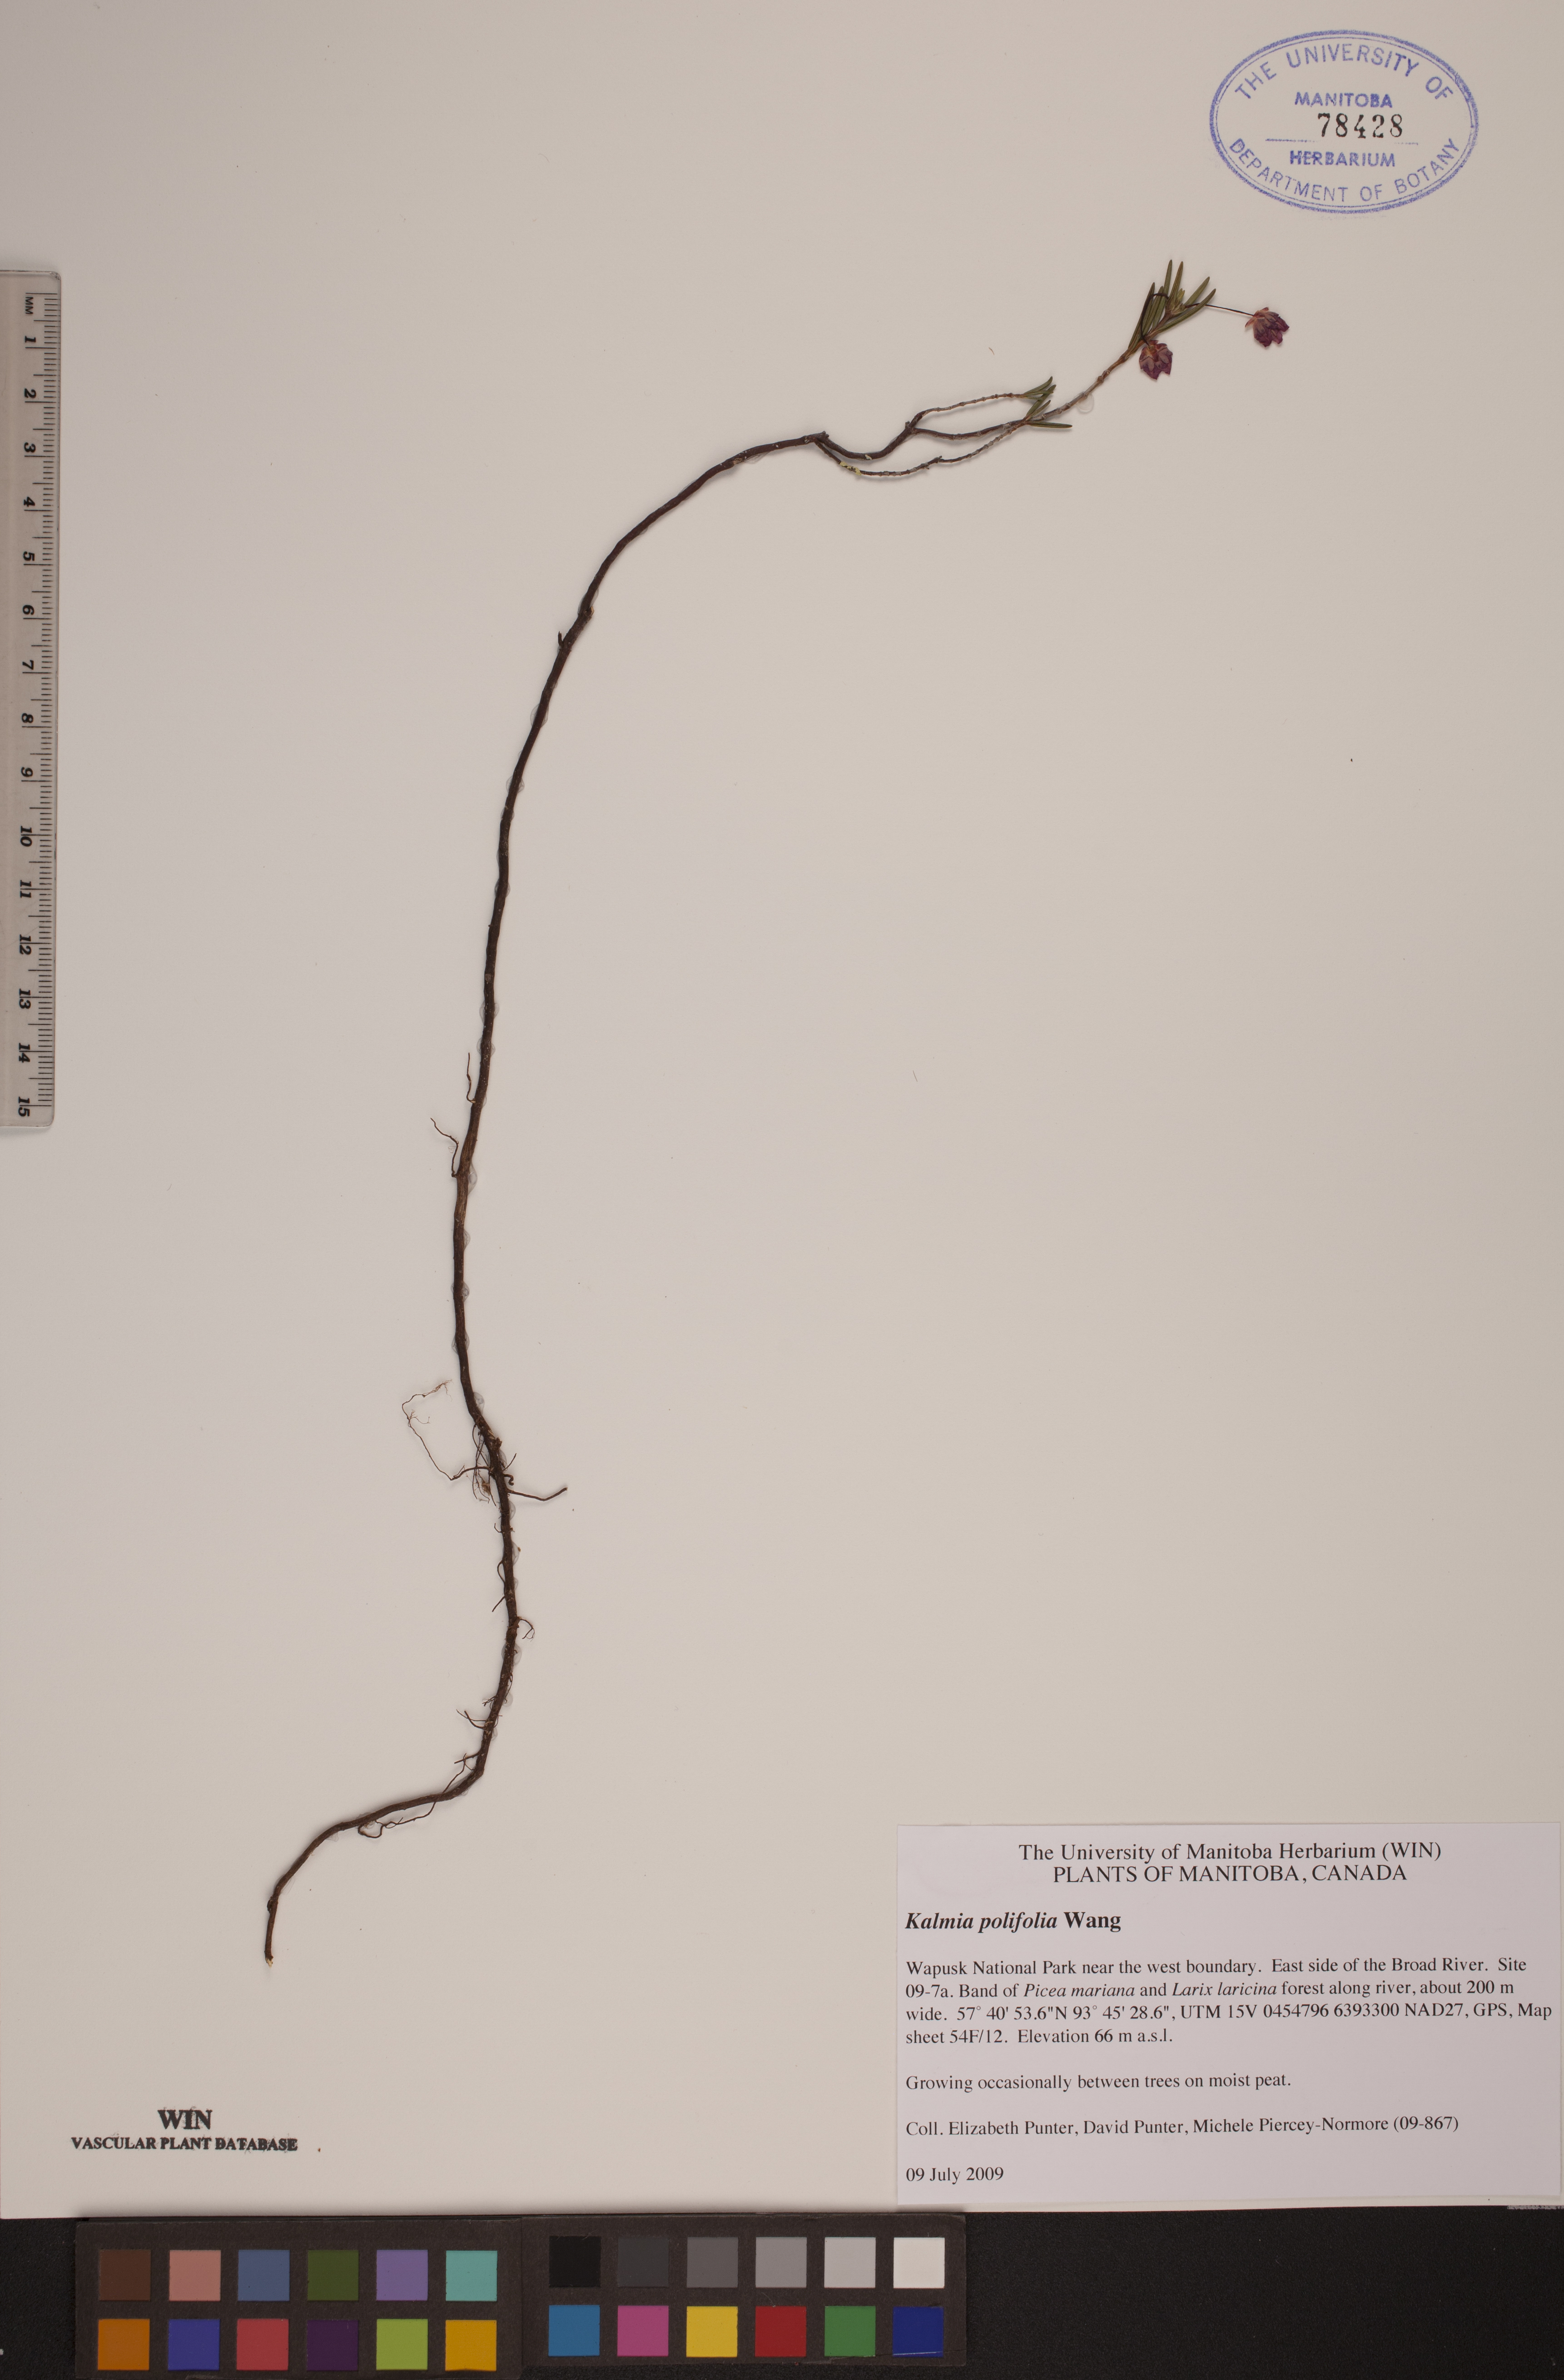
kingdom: Plantae
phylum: Tracheophyta
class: Magnoliopsida
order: Ericales
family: Ericaceae
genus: Kalmia
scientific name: Kalmia polifolia
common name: Bog-laurel
